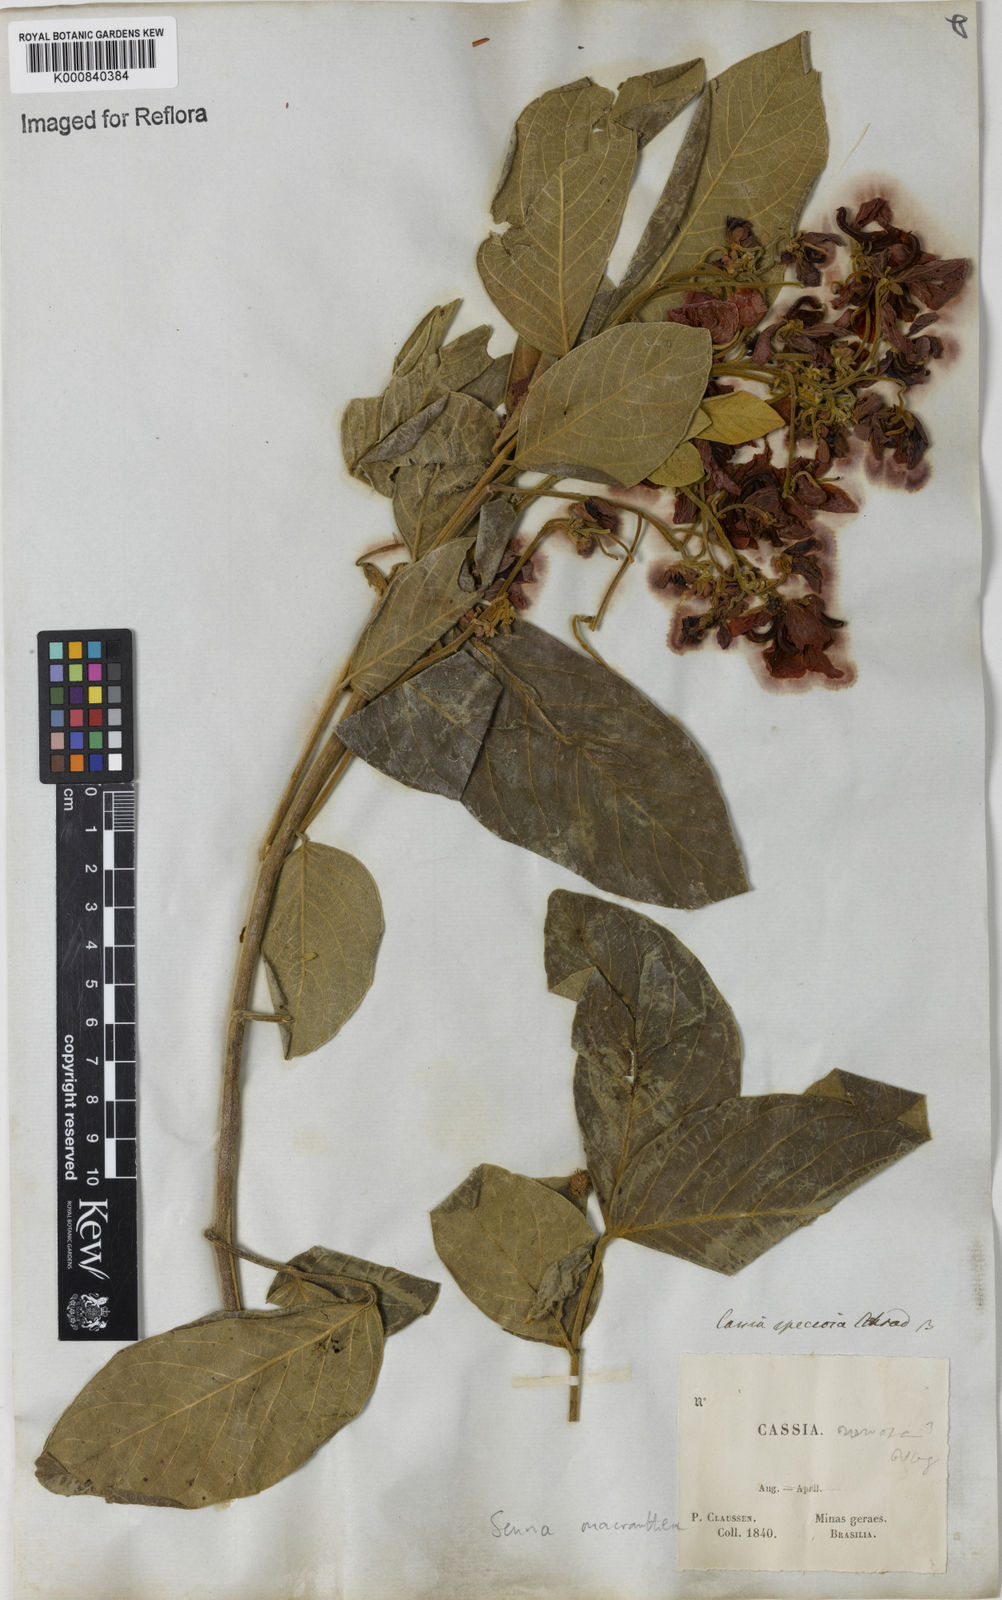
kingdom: Plantae
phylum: Tracheophyta
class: Magnoliopsida
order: Fabales
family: Fabaceae
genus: Senna
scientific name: Senna macranthera
